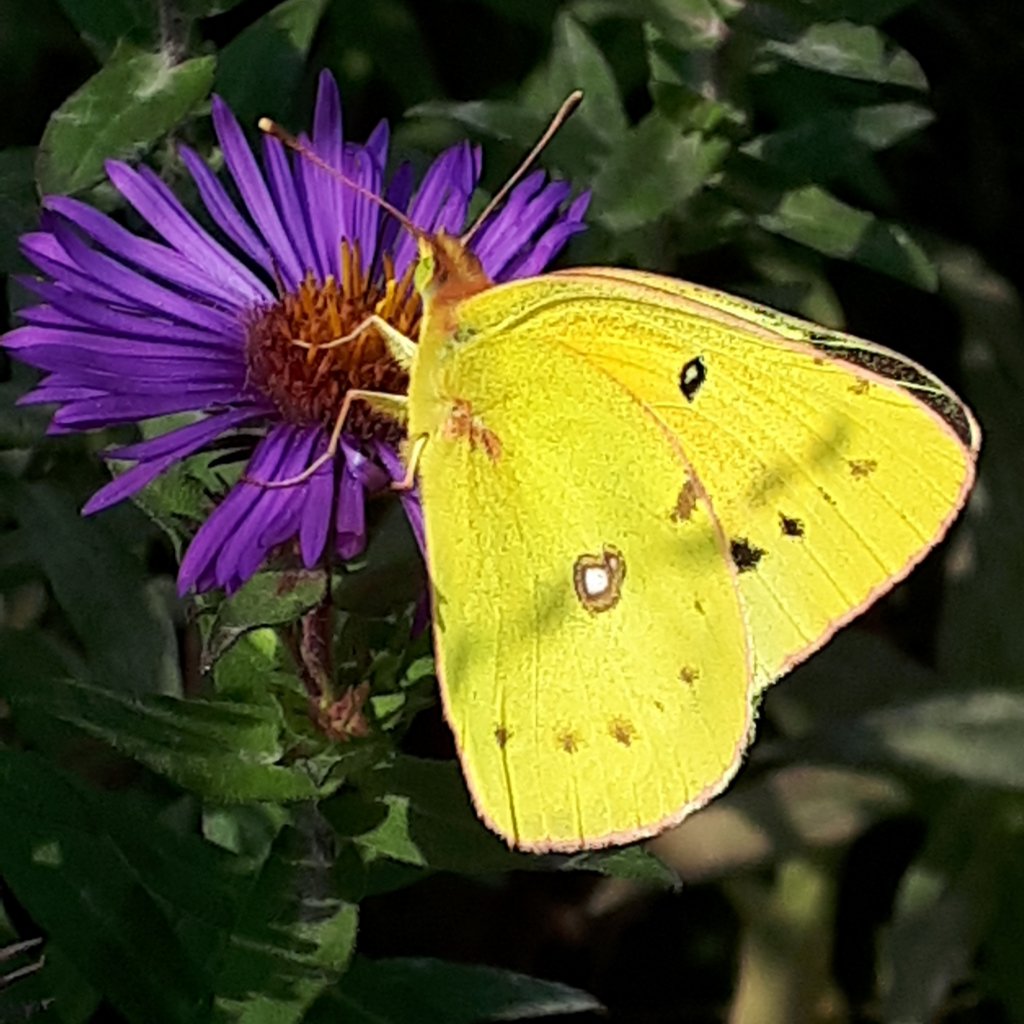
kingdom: Animalia
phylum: Arthropoda
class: Insecta
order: Lepidoptera
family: Pieridae
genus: Colias
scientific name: Colias eurytheme
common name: Orange Sulphur
